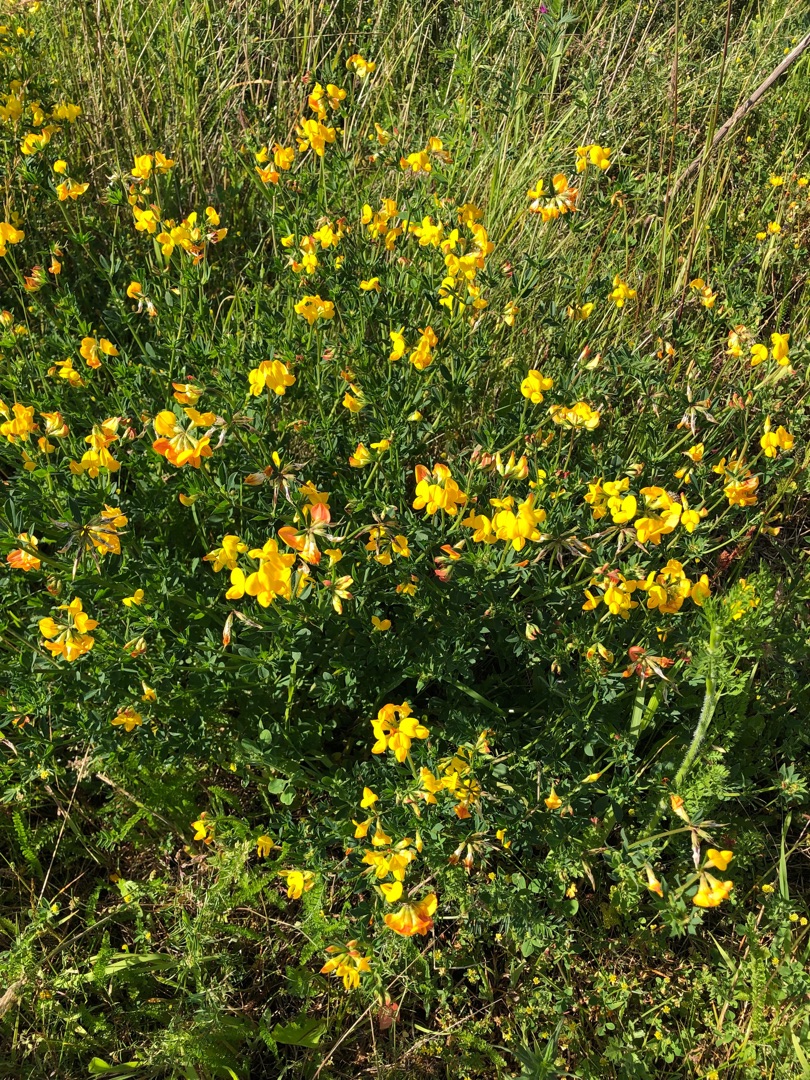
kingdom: Plantae
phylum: Tracheophyta
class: Magnoliopsida
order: Fabales
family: Fabaceae
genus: Lotus
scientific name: Lotus corniculatus
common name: Almindelig kællingetand
